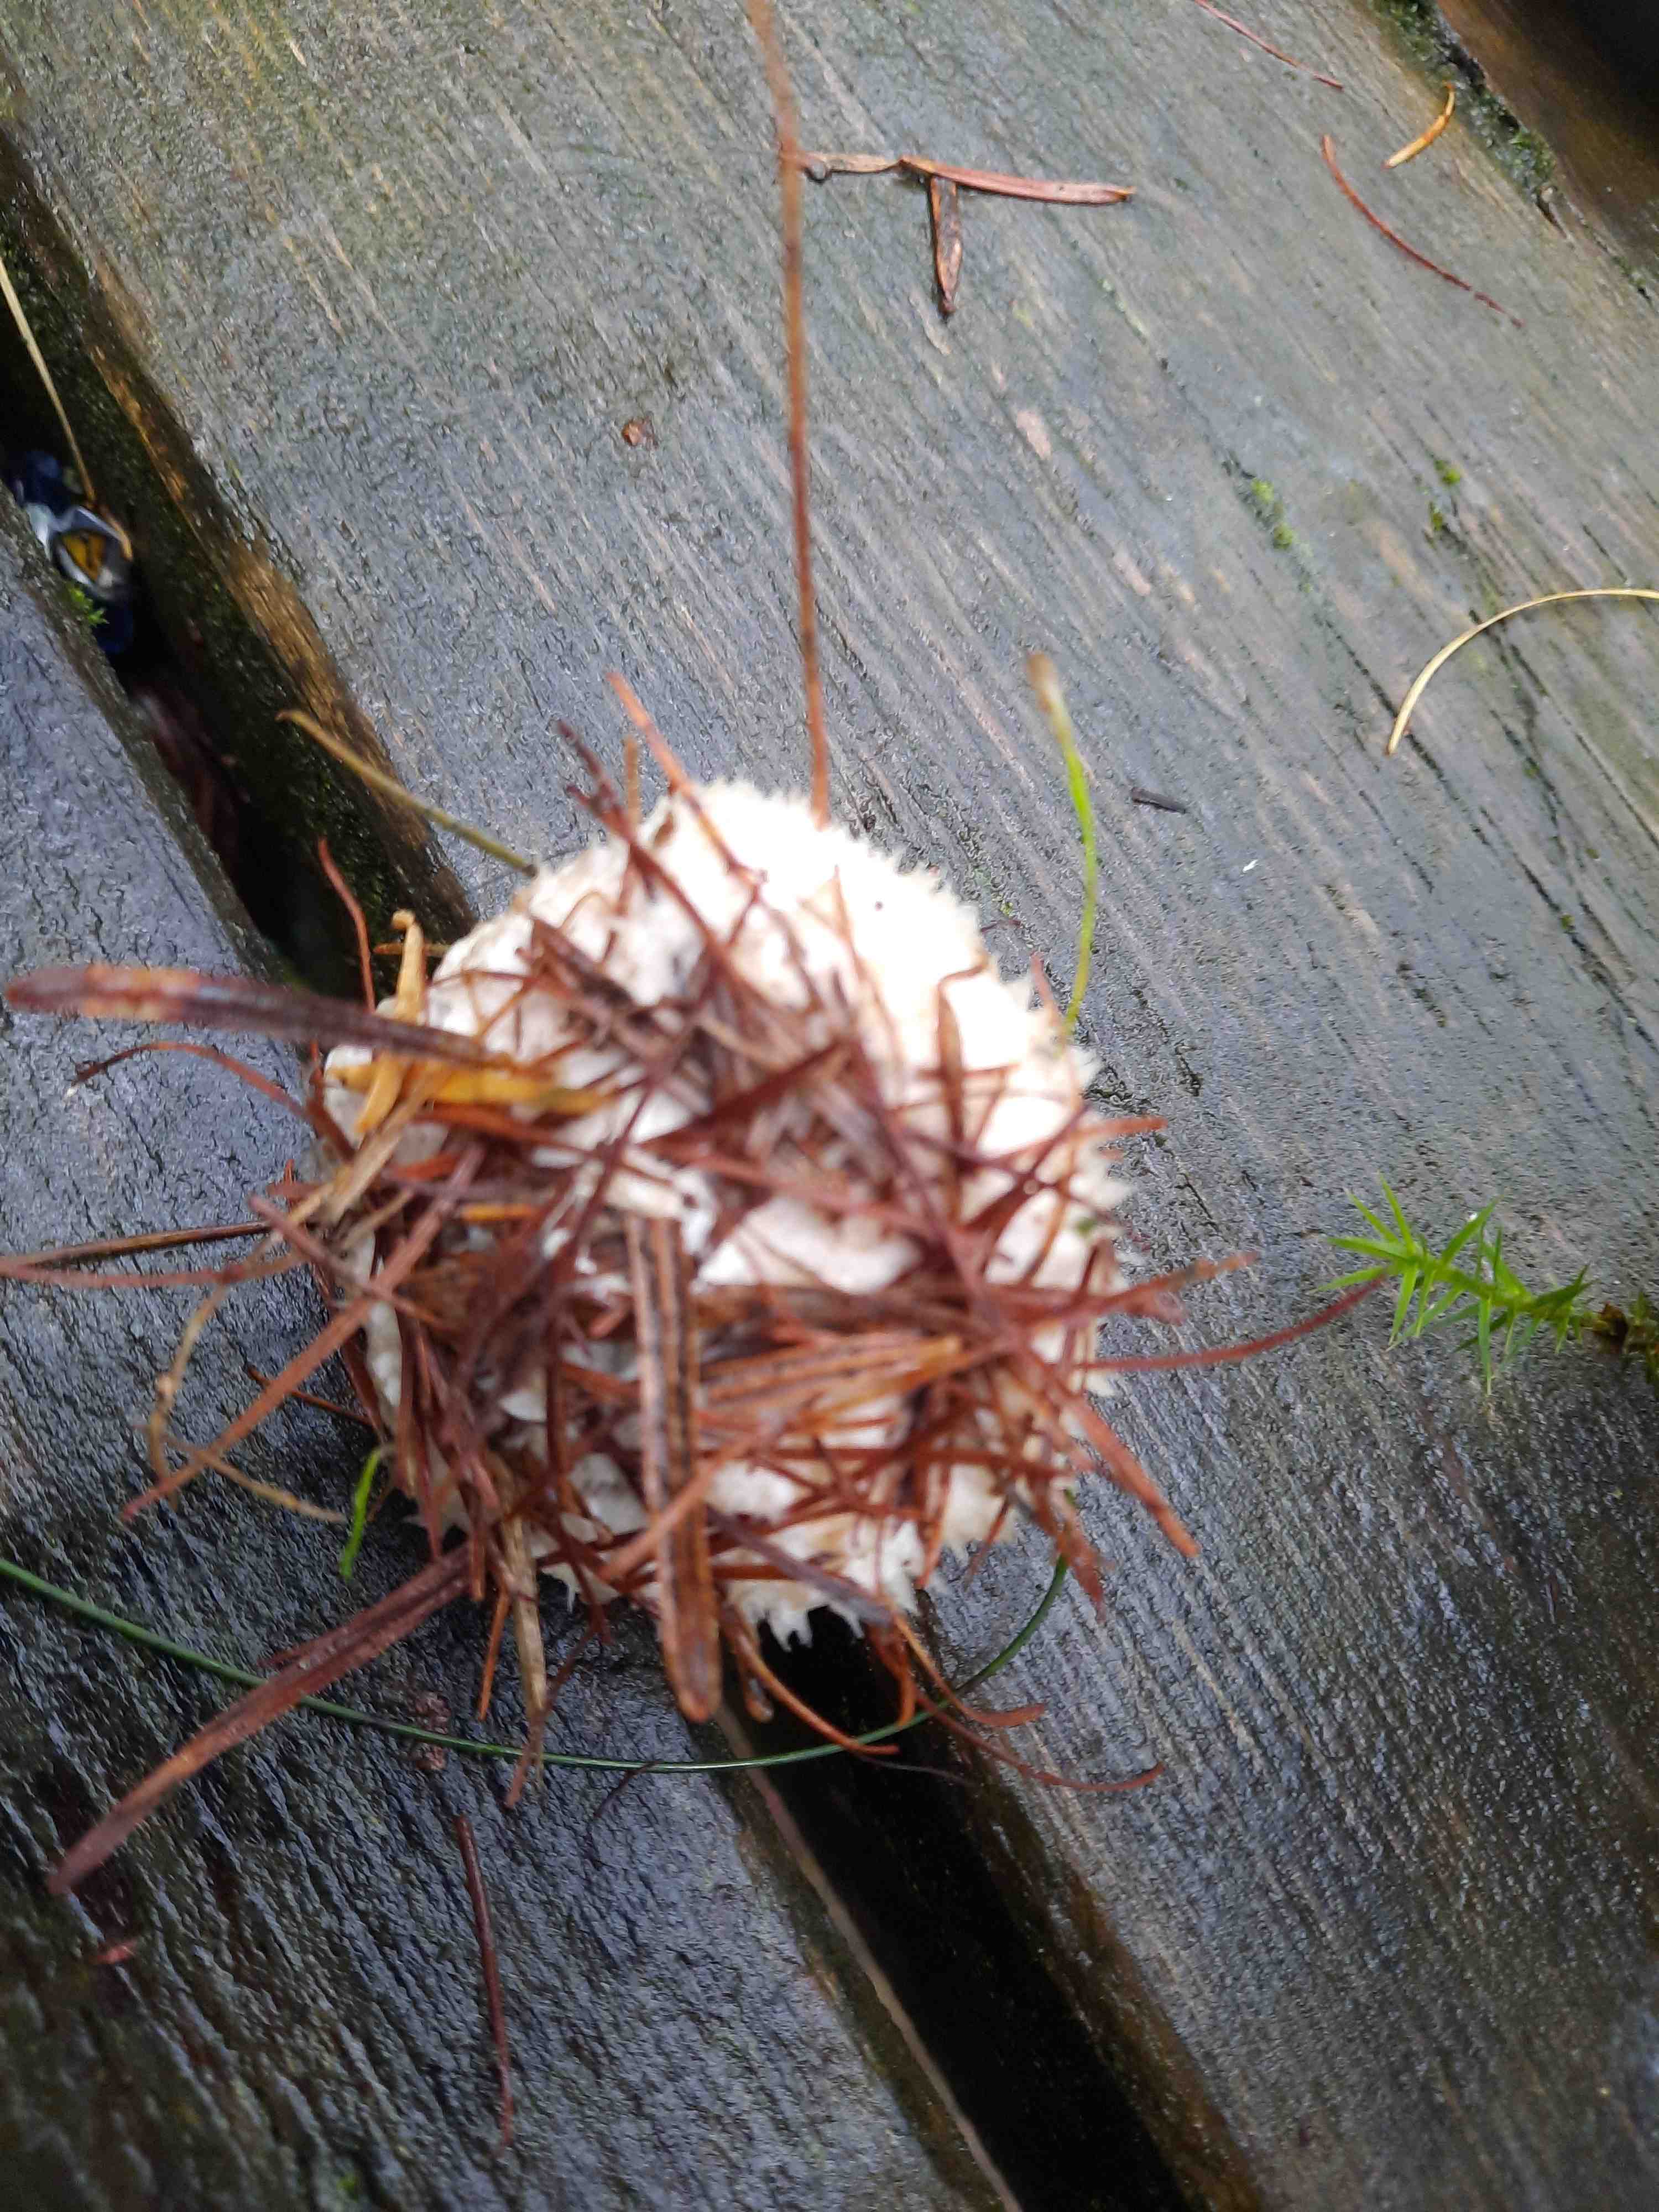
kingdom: Fungi
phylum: Basidiomycota
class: Agaricomycetes
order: Polyporales
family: Dacryobolaceae
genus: Postia
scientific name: Postia ptychogaster
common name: støvende kødporesvamp
